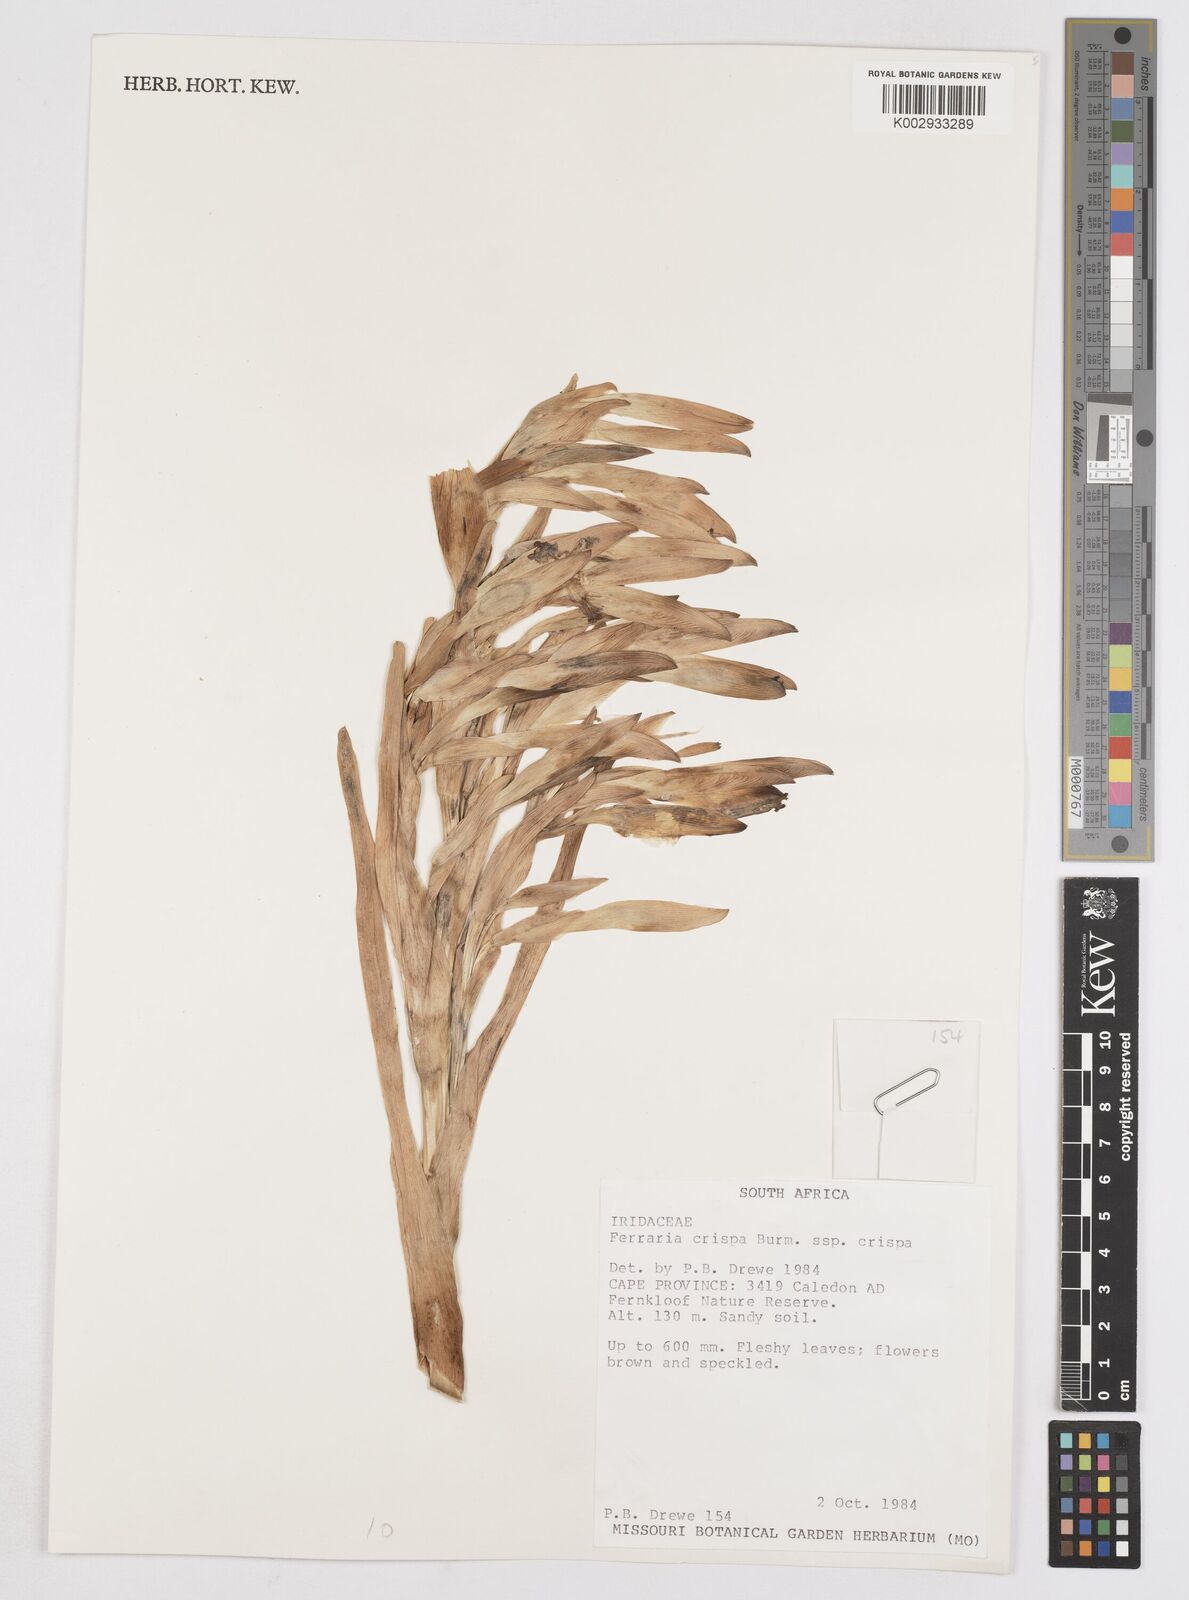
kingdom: Plantae
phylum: Tracheophyta
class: Liliopsida
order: Asparagales
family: Iridaceae
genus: Ferraria
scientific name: Ferraria crispa
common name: Black-flag
